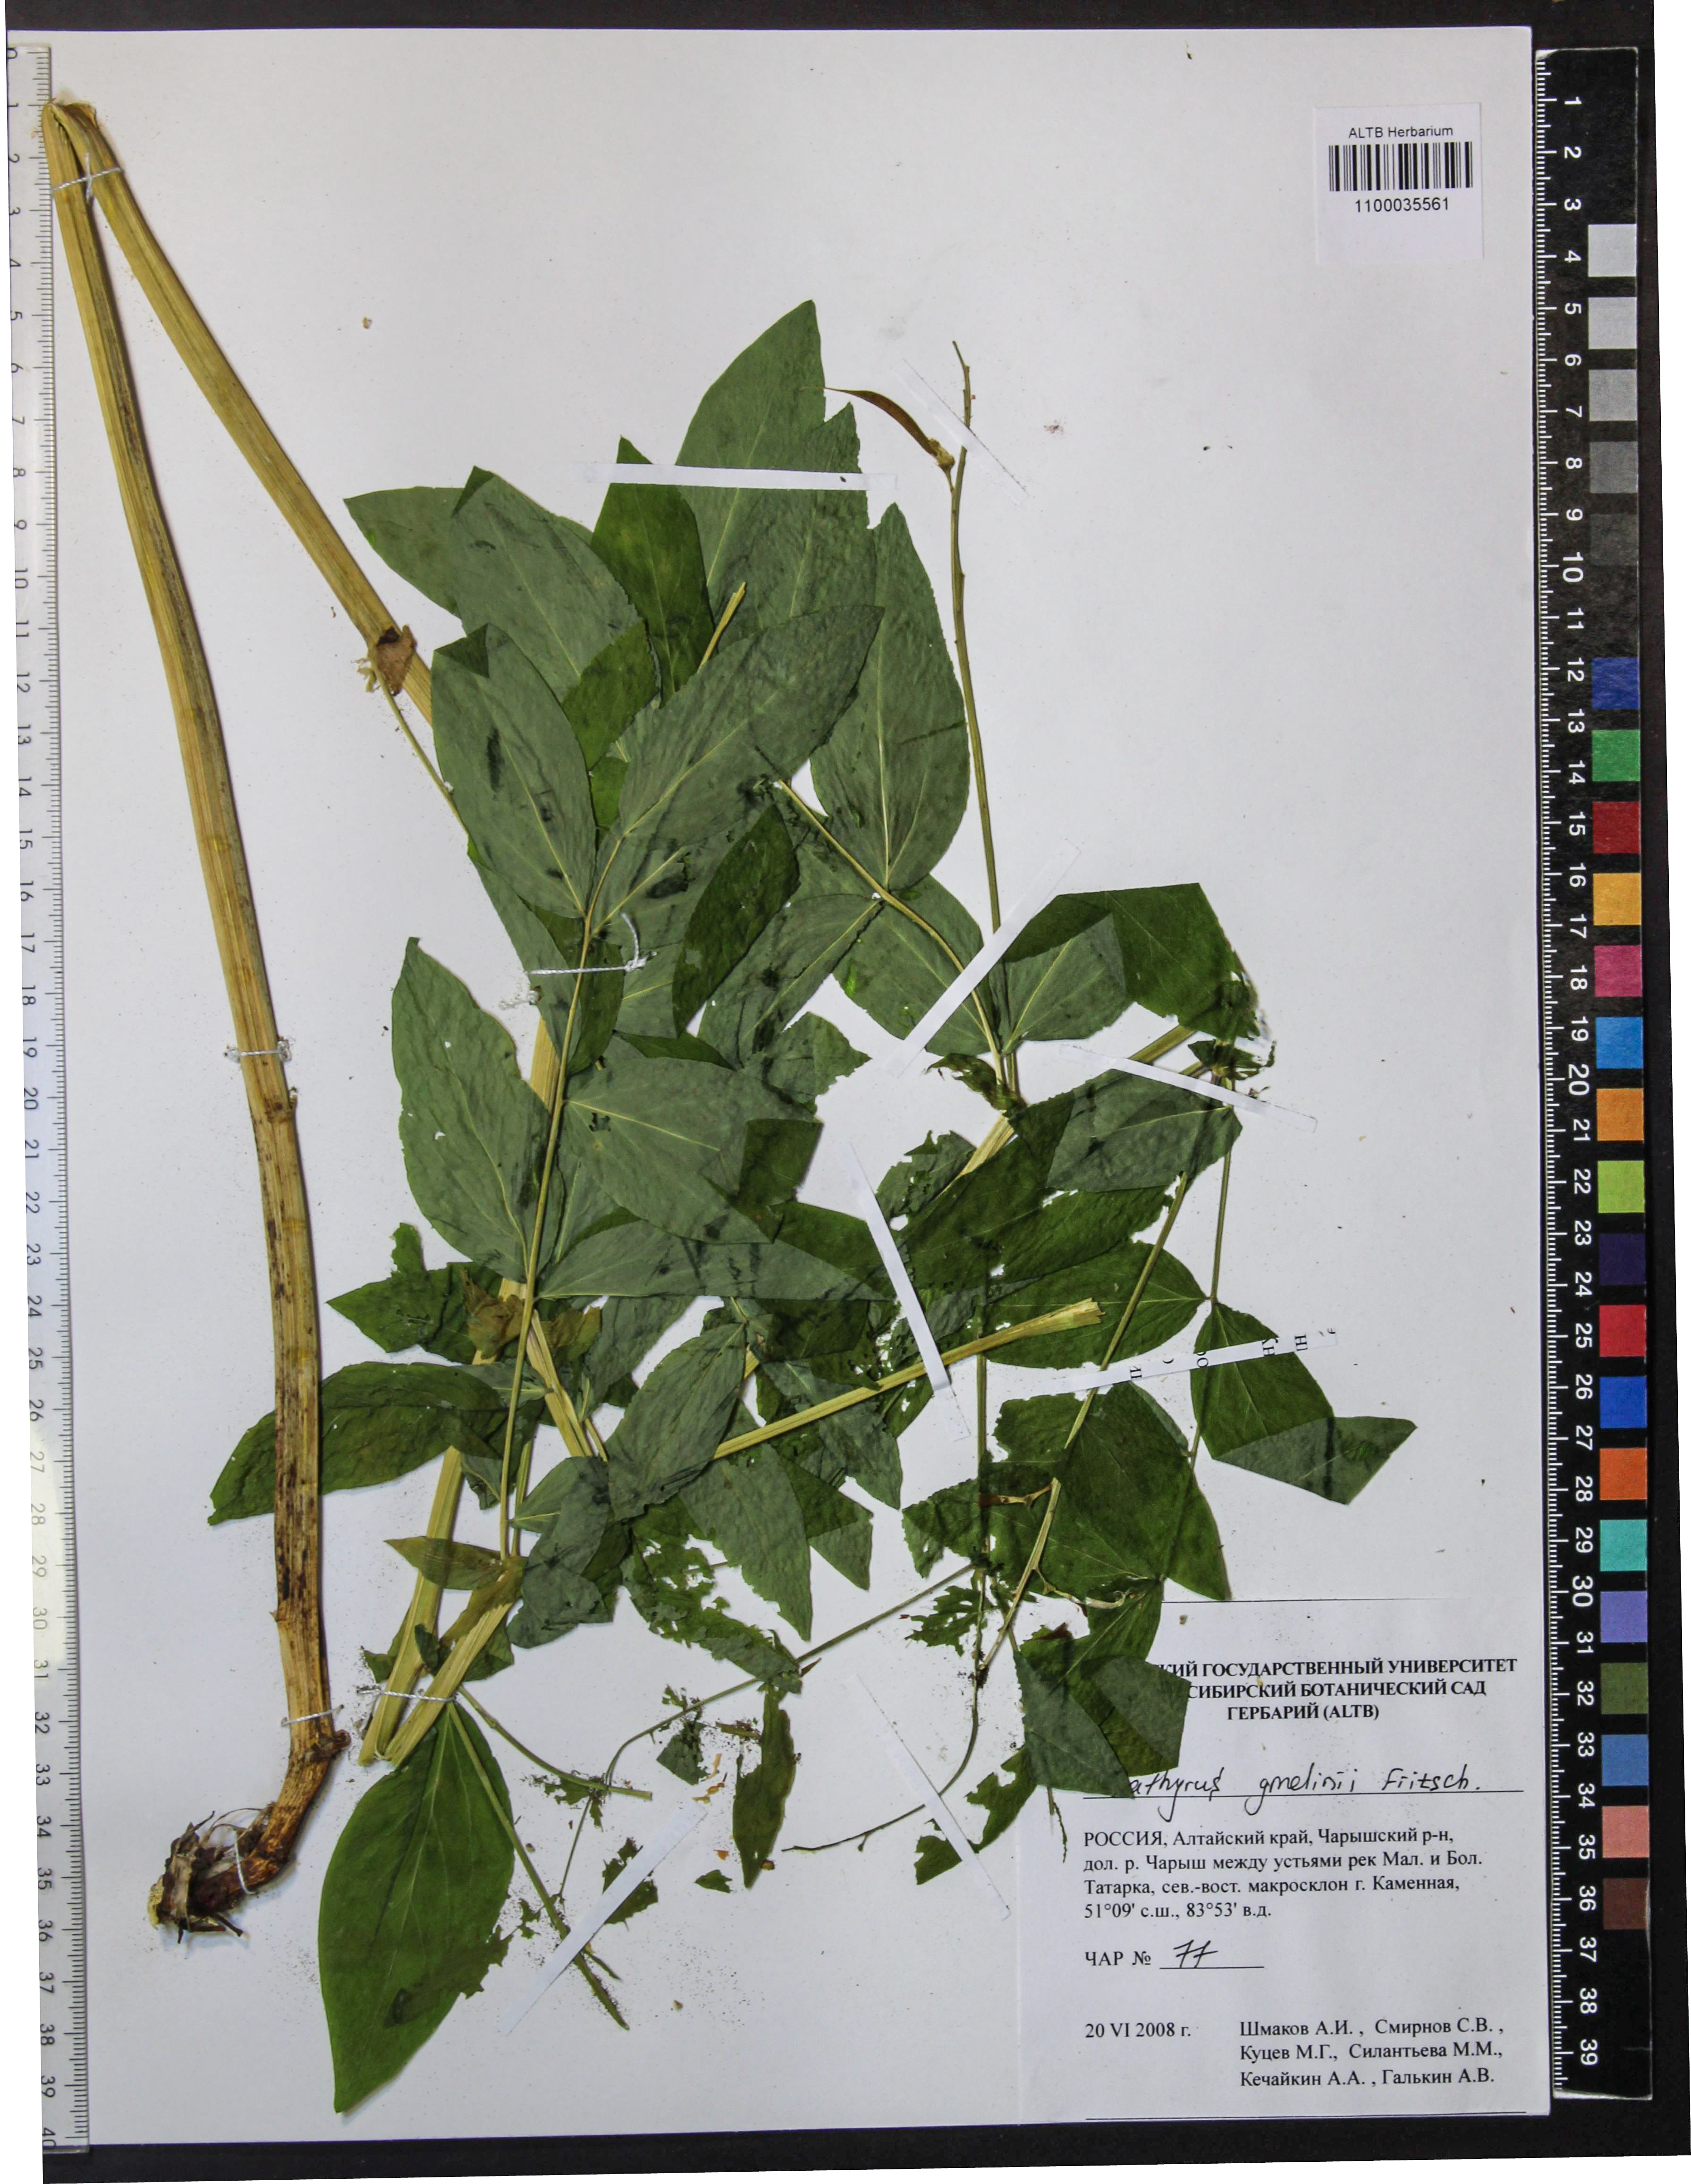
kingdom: Plantae
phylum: Tracheophyta
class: Magnoliopsida
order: Fabales
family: Fabaceae
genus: Lathyrus
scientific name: Lathyrus gmelinii
